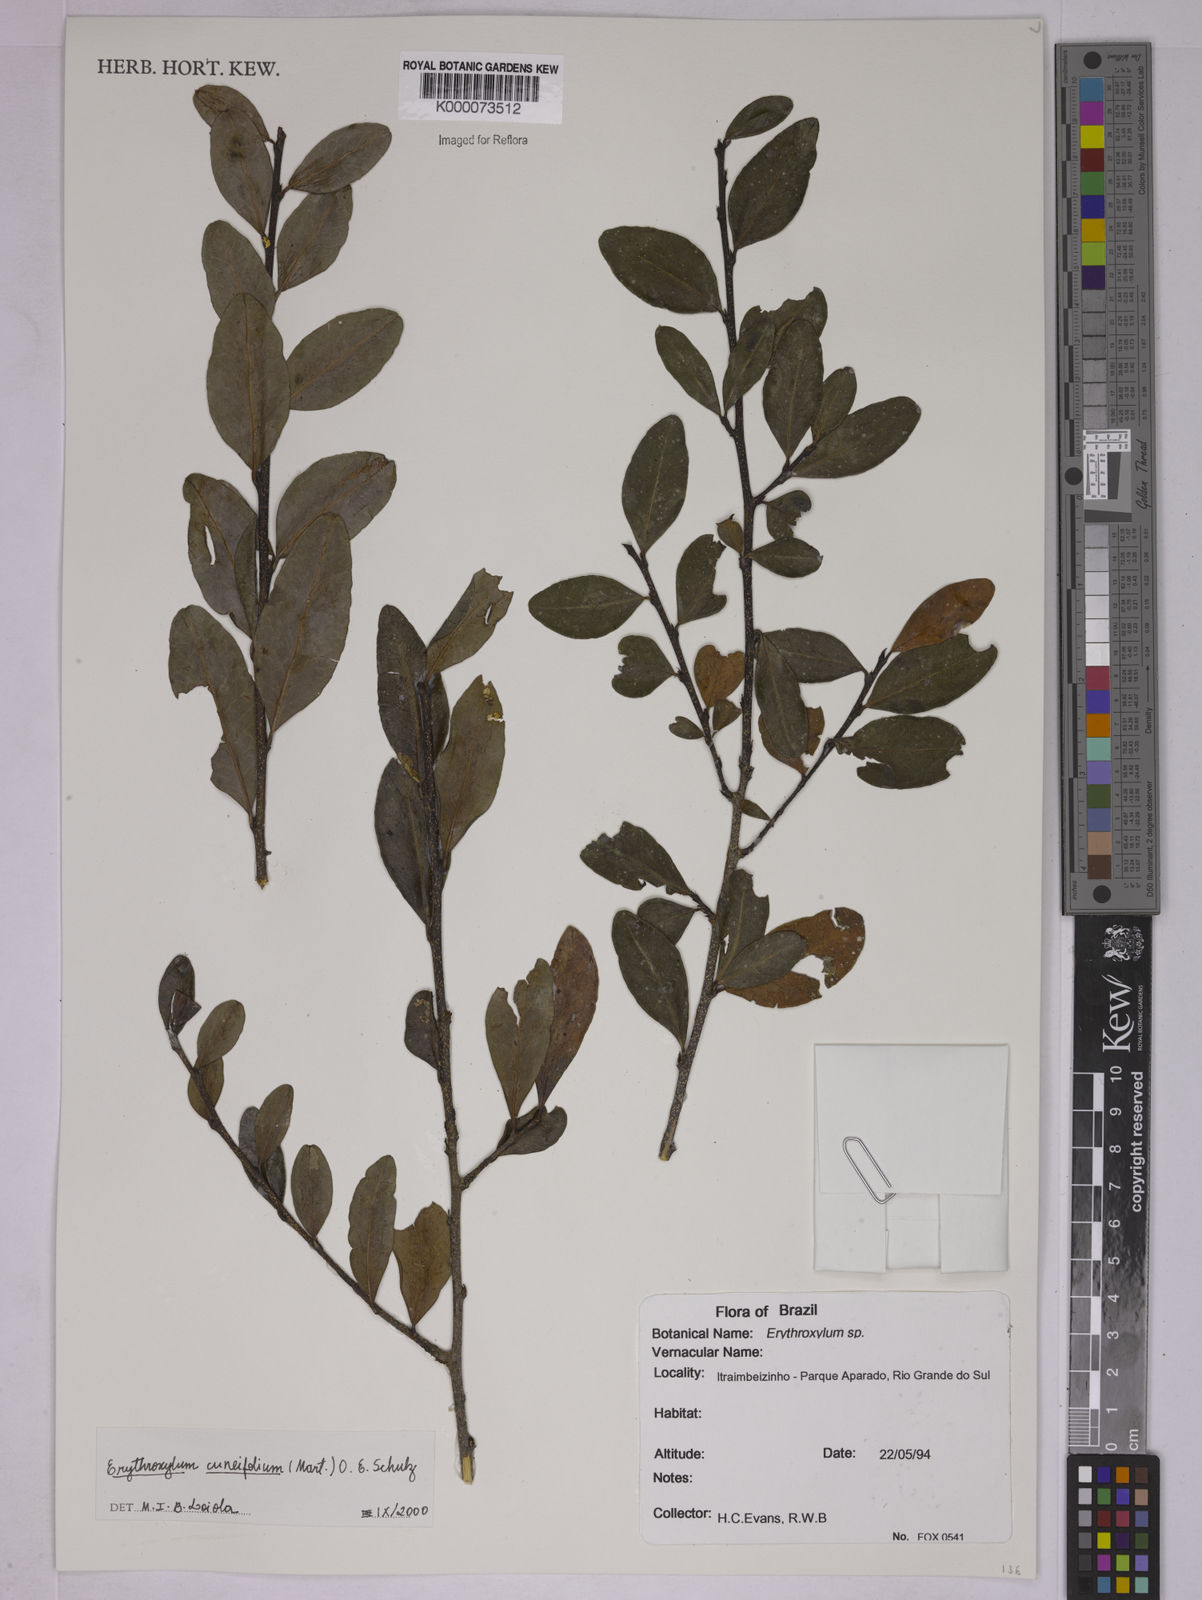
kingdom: Plantae
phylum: Tracheophyta
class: Magnoliopsida
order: Malpighiales
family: Erythroxylaceae
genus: Erythroxylum
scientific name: Erythroxylum cuneifolium
